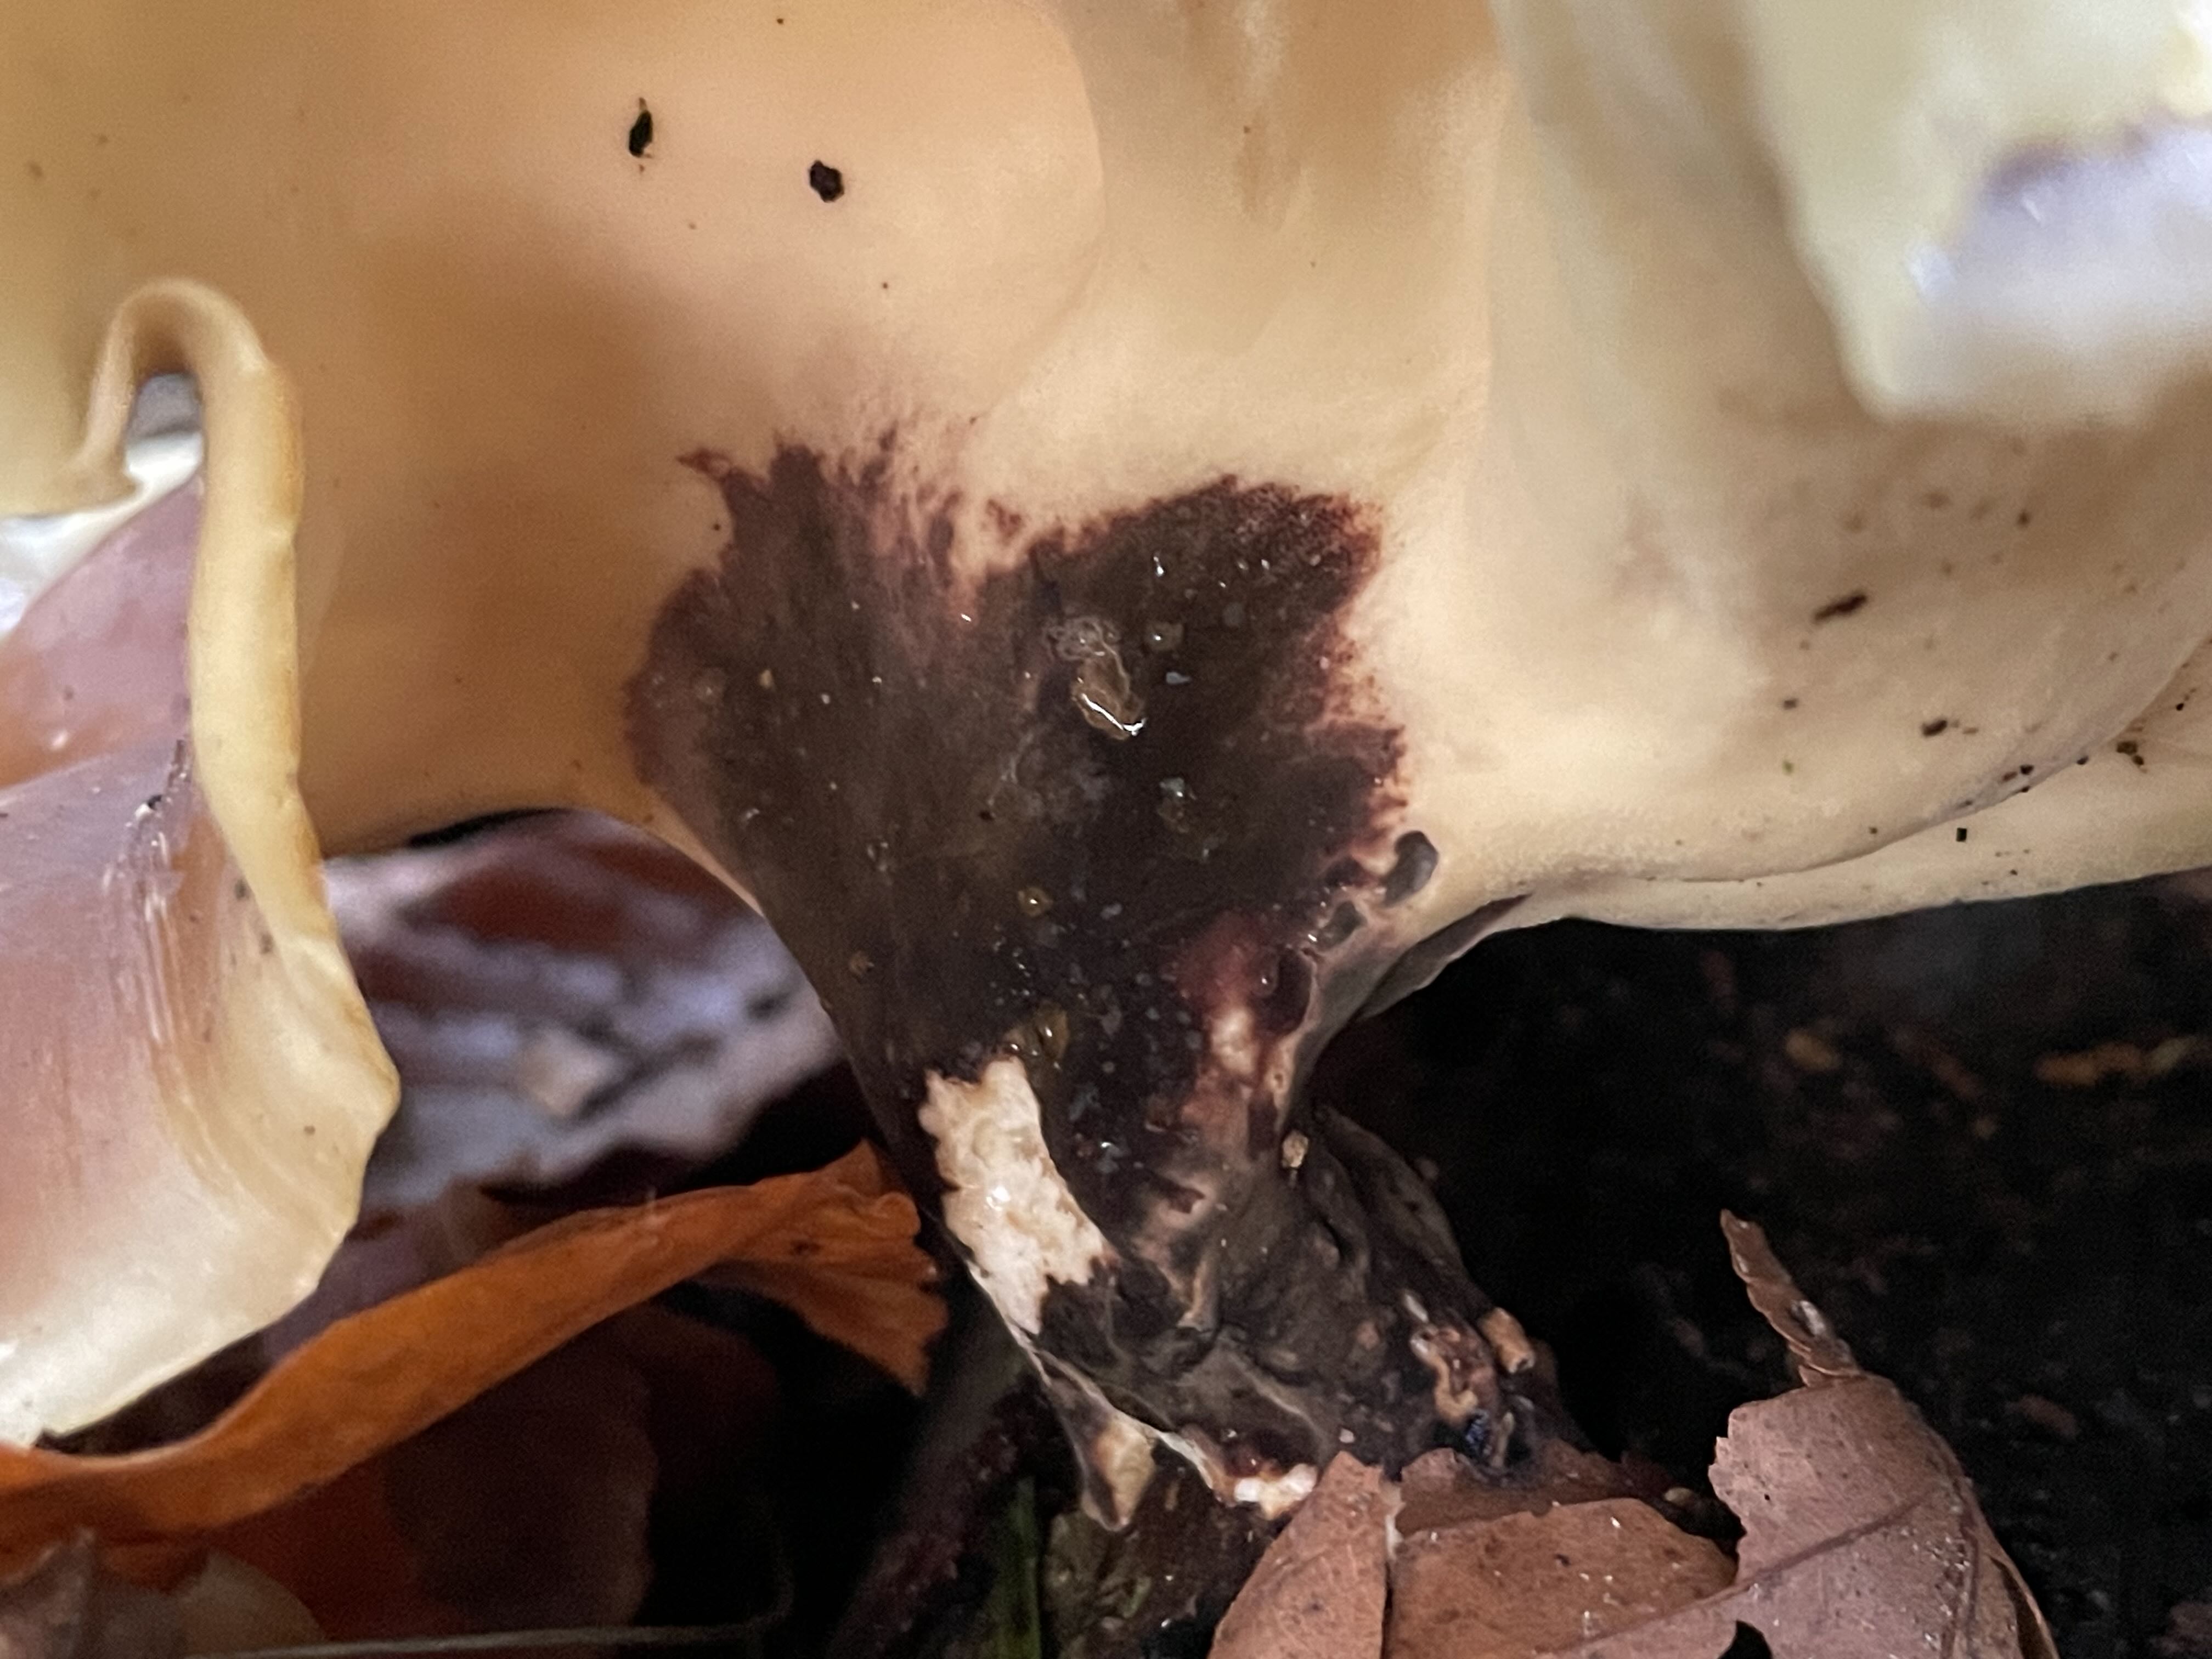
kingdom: Fungi
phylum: Basidiomycota
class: Agaricomycetes
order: Polyporales
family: Polyporaceae
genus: Picipes
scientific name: Picipes badius
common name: kastaniebrun stilkporesvamp
